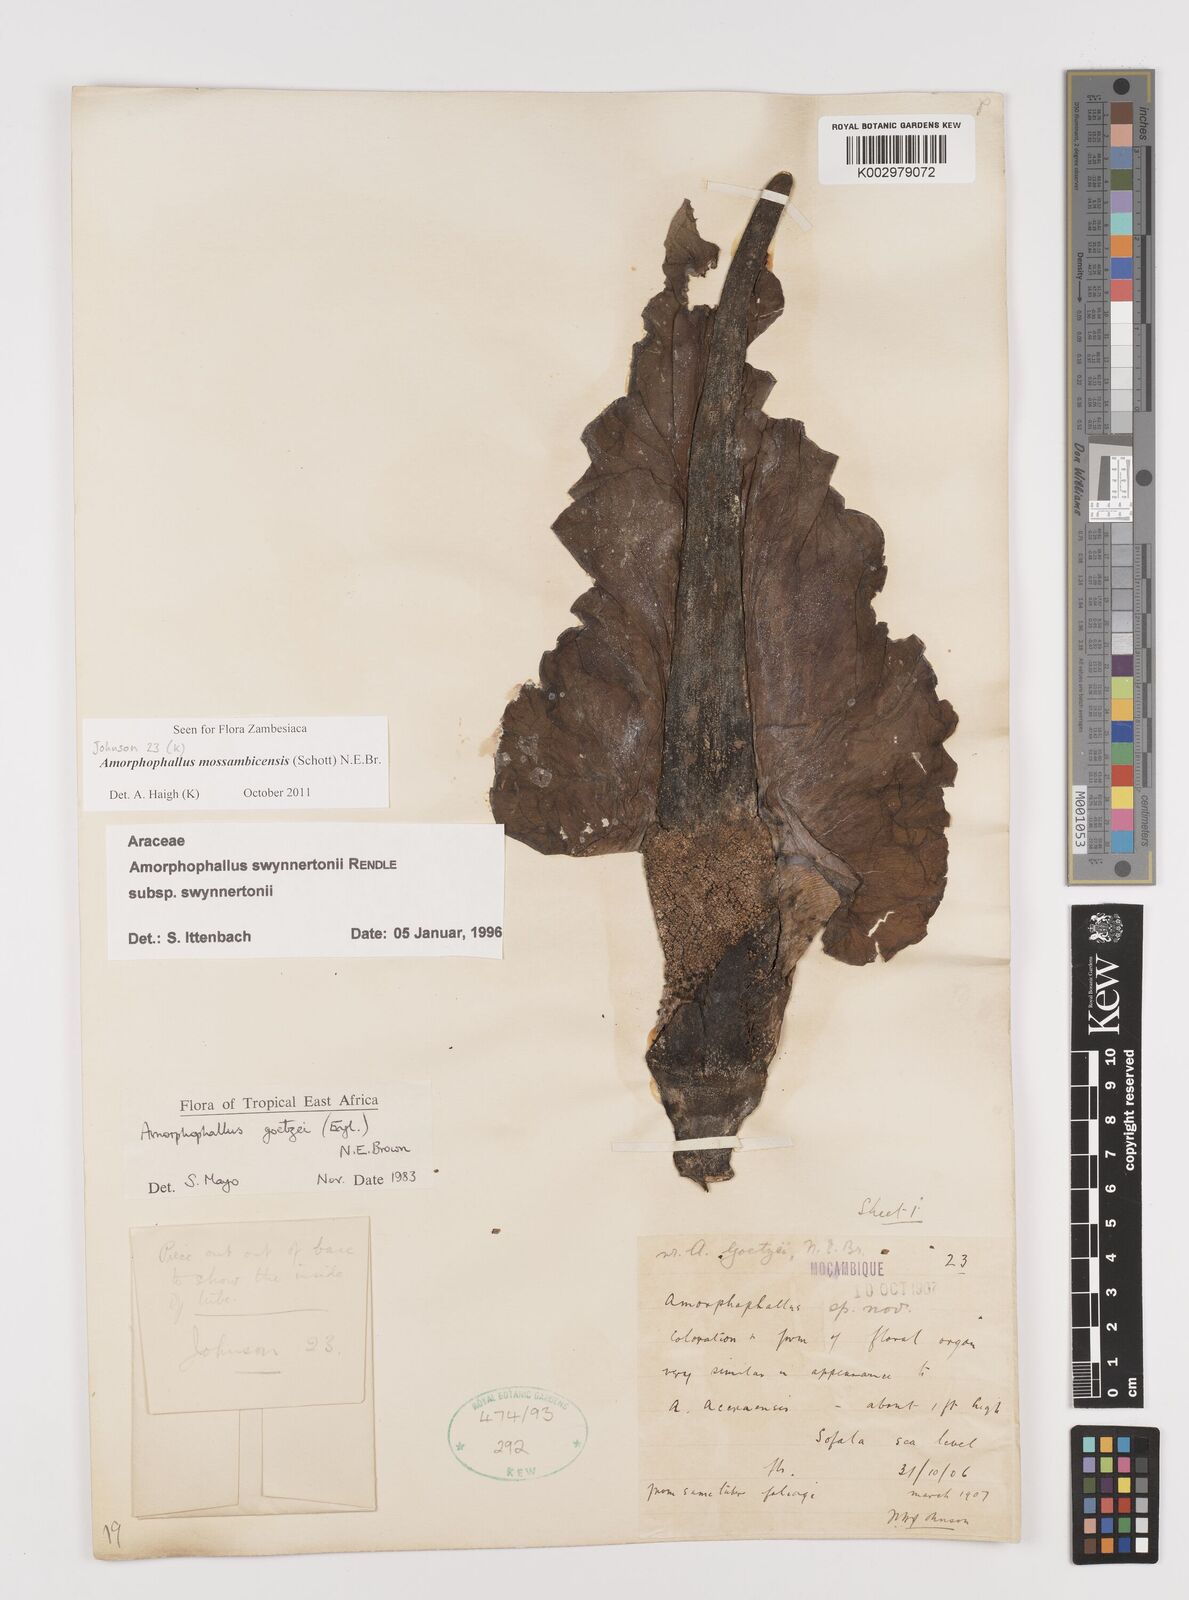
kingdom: Plantae
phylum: Tracheophyta
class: Liliopsida
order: Alismatales
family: Araceae
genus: Amorphophallus
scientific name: Amorphophallus mossambicensis
